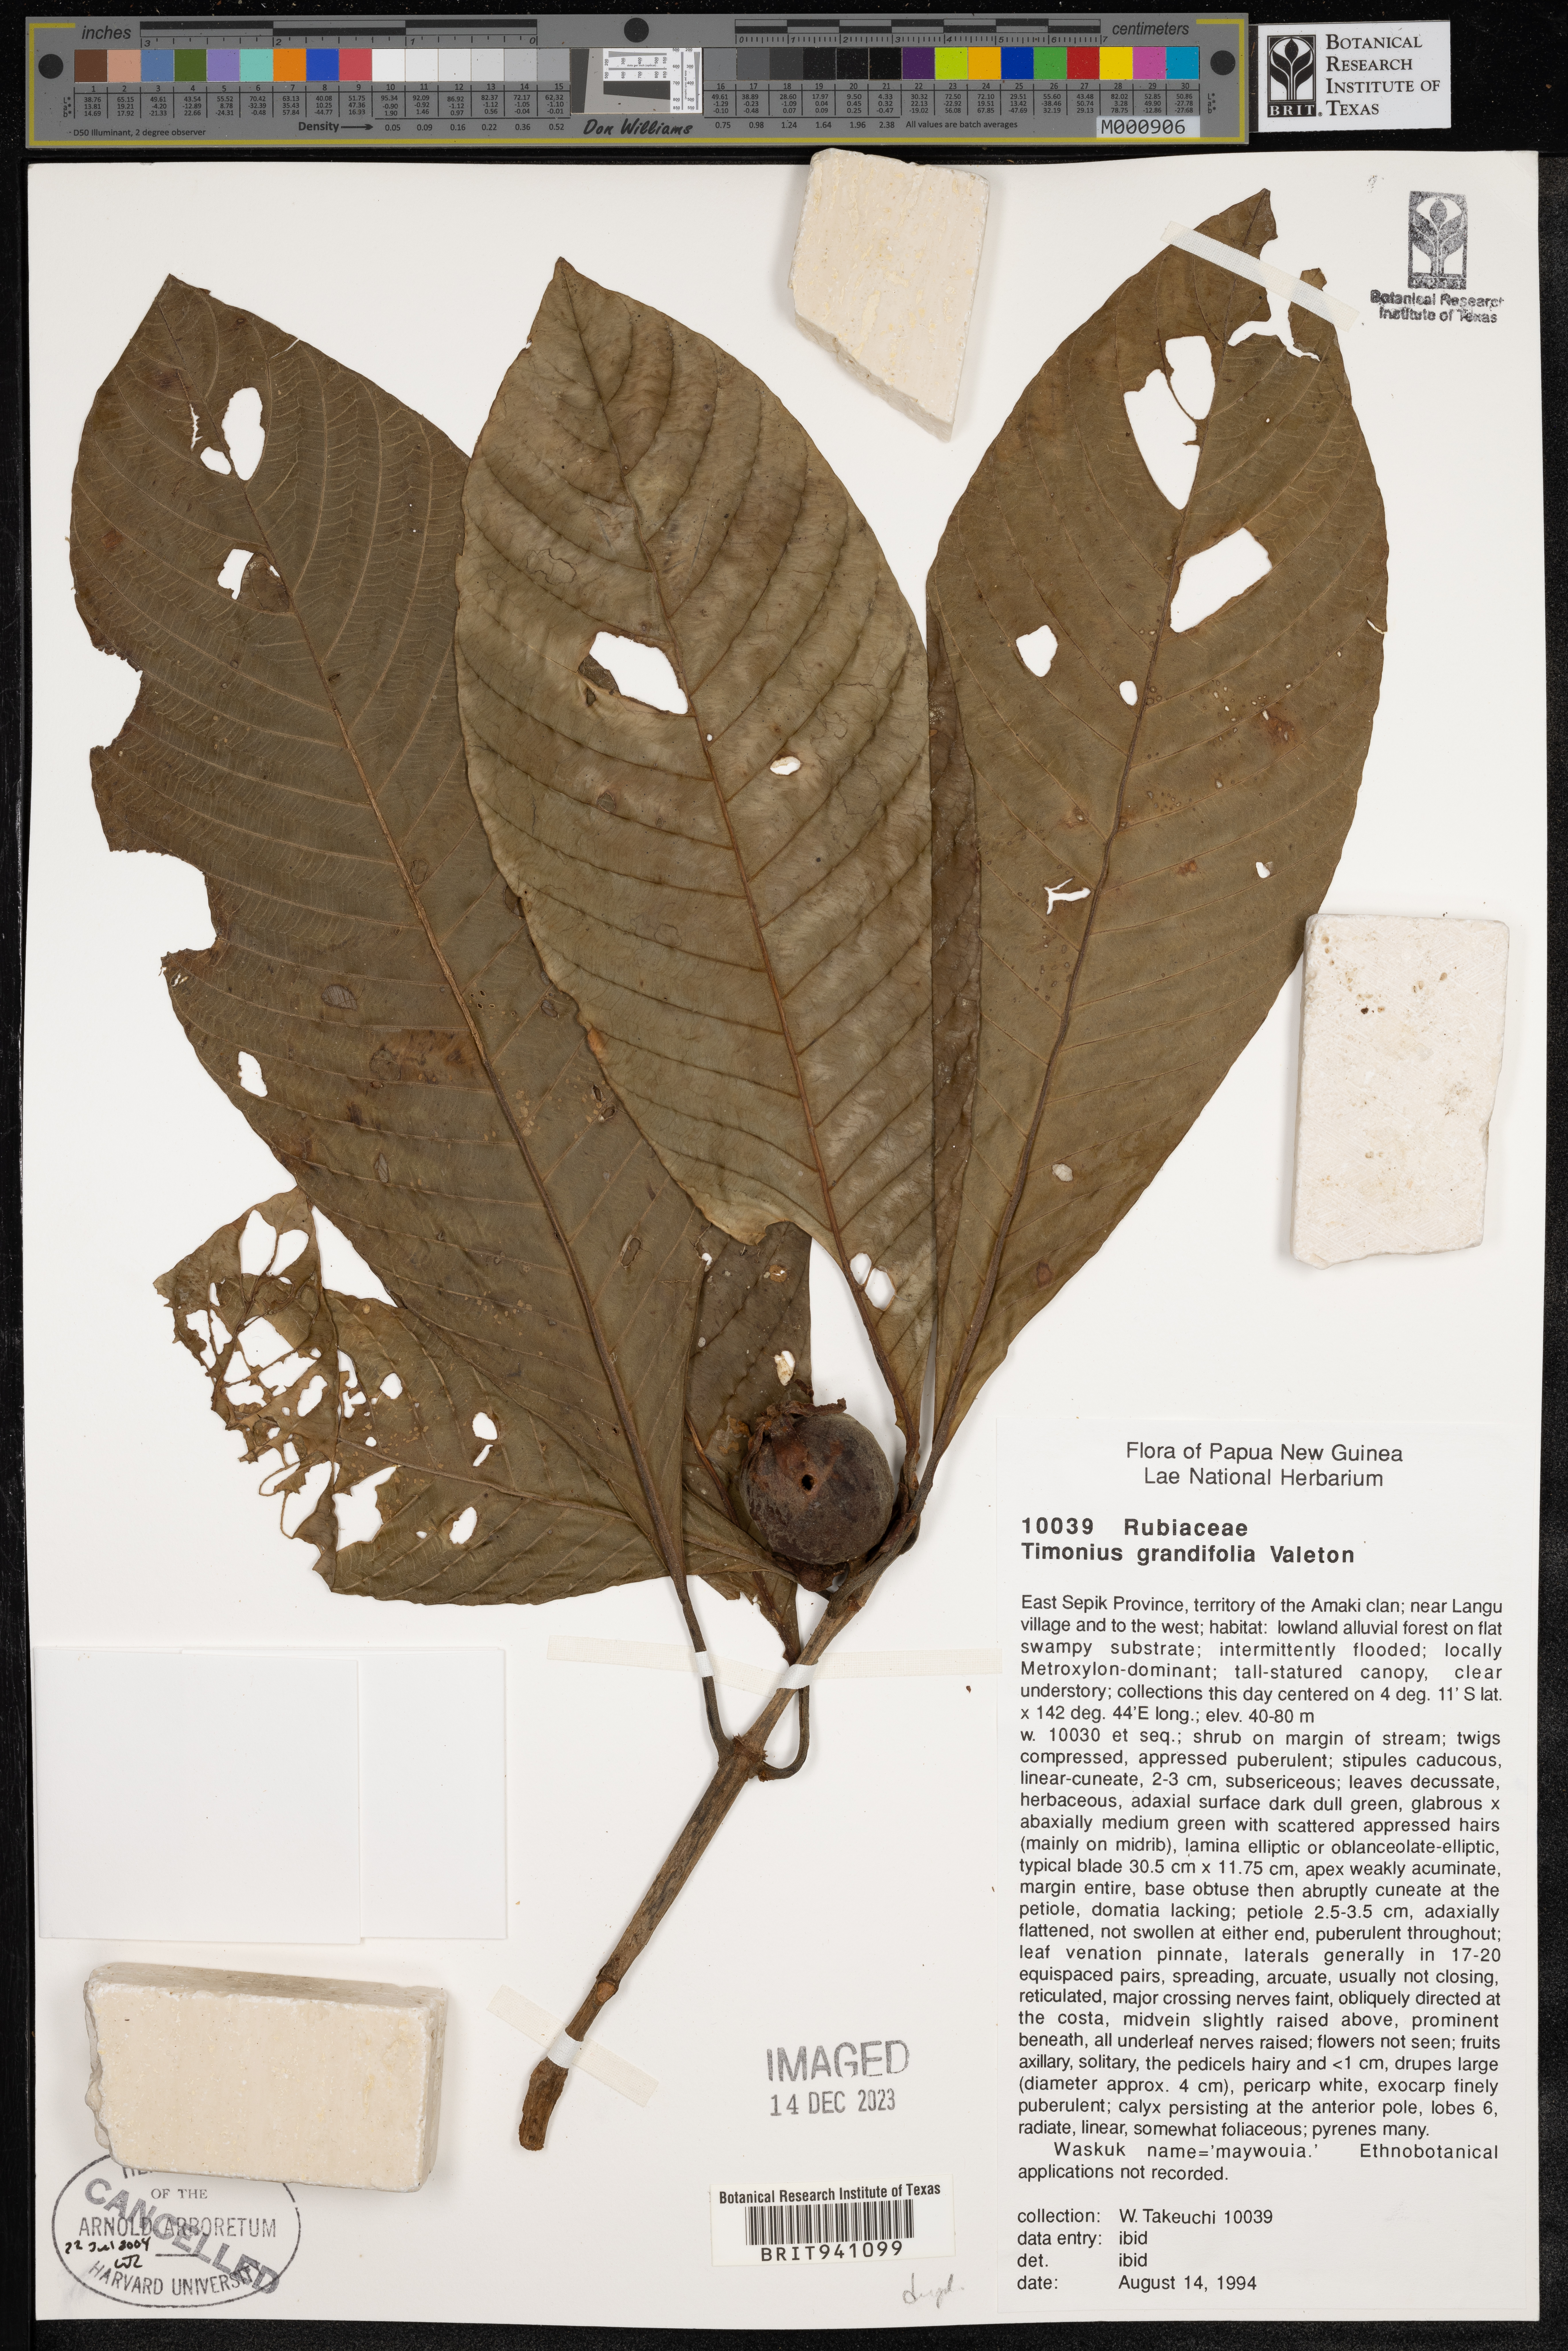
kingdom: Plantae
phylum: Tracheophyta
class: Magnoliopsida
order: Gentianales
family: Rubiaceae
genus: Timonius
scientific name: Timonius
